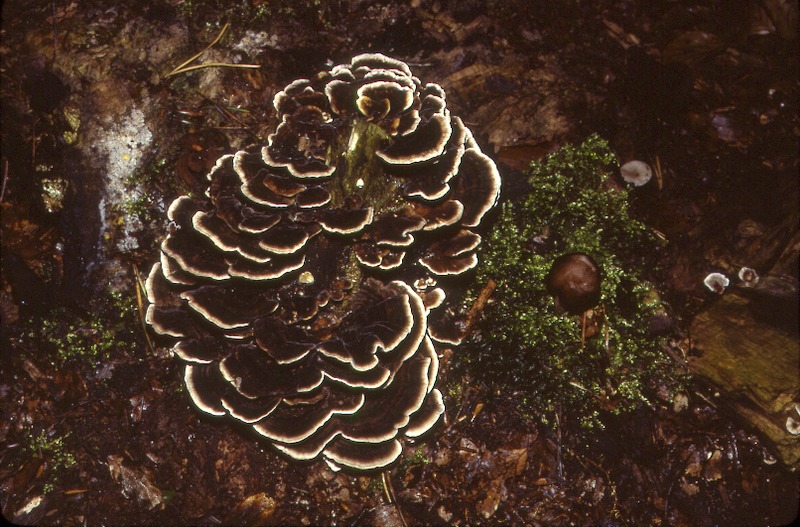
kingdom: Fungi
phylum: Basidiomycota
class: Agaricomycetes
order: Polyporales
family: Polyporaceae
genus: Trametes
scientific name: Trametes versicolor
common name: Turkeytail
